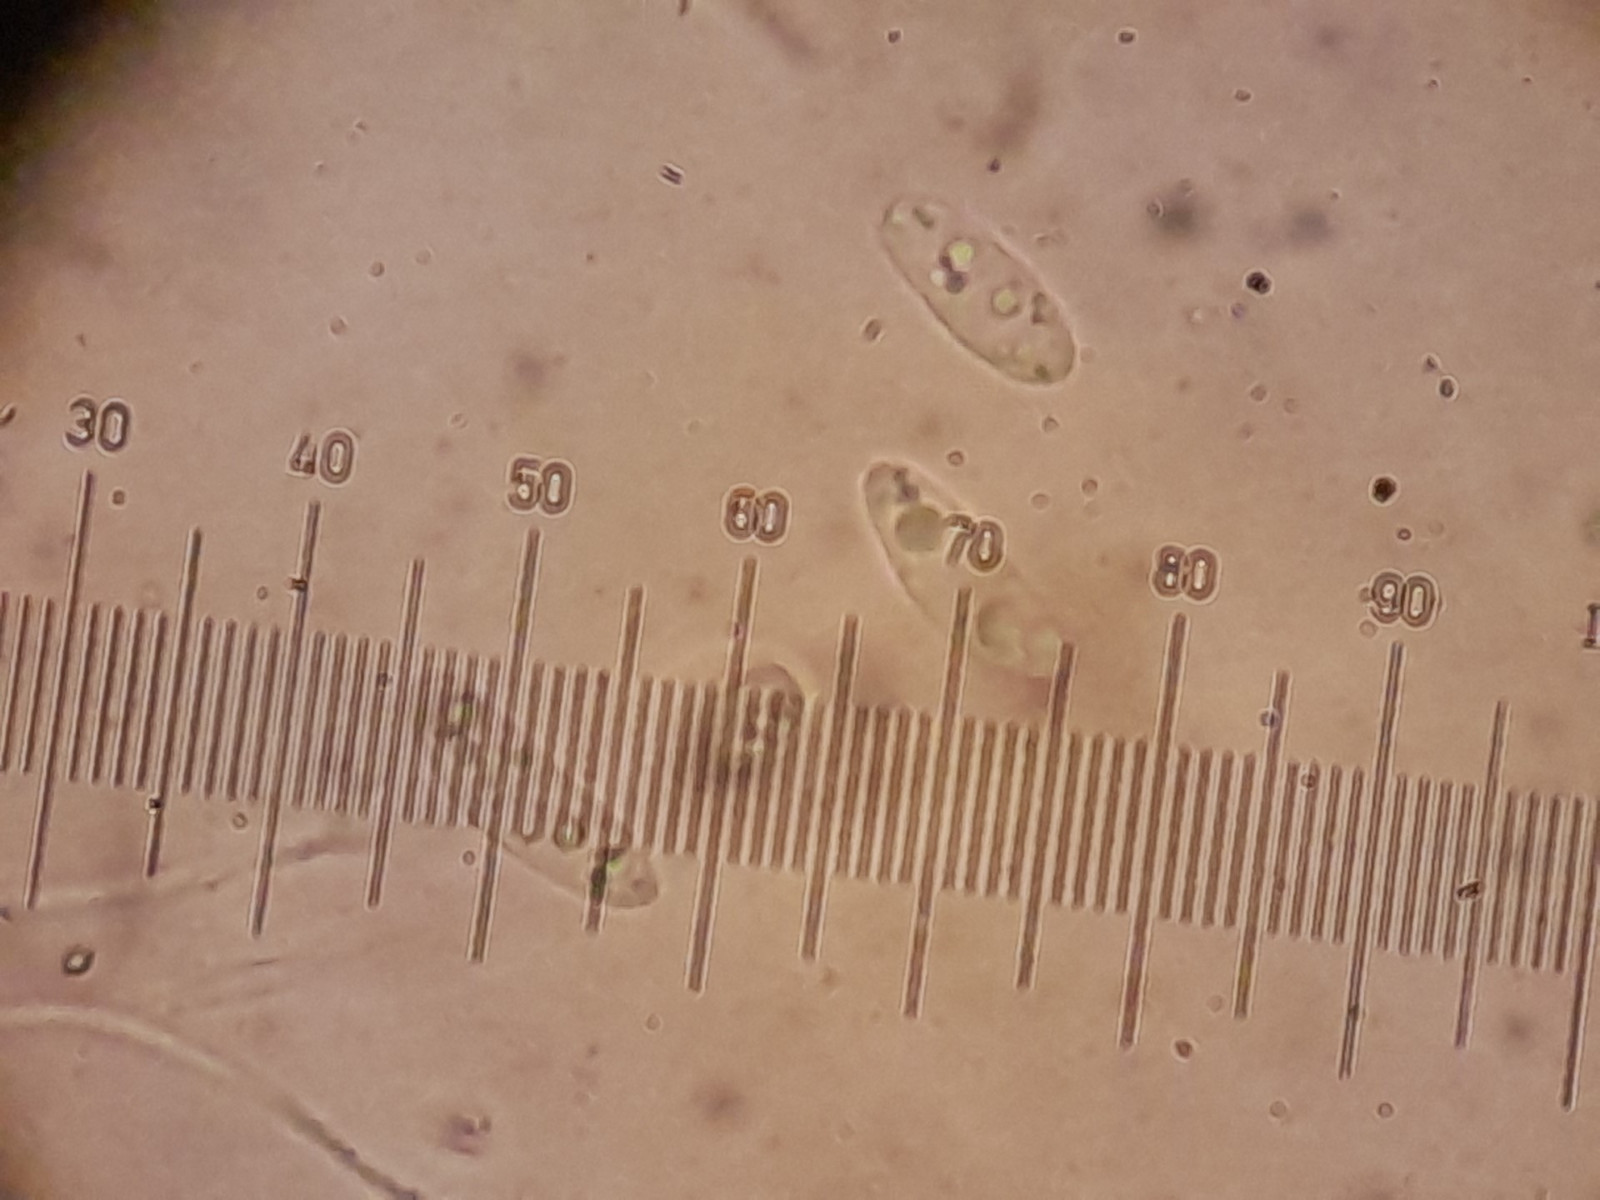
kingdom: Fungi
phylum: Ascomycota
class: Leotiomycetes
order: Helotiales
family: Pezizellaceae
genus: Calycina
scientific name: Calycina citrina
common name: almindelig gulskive
